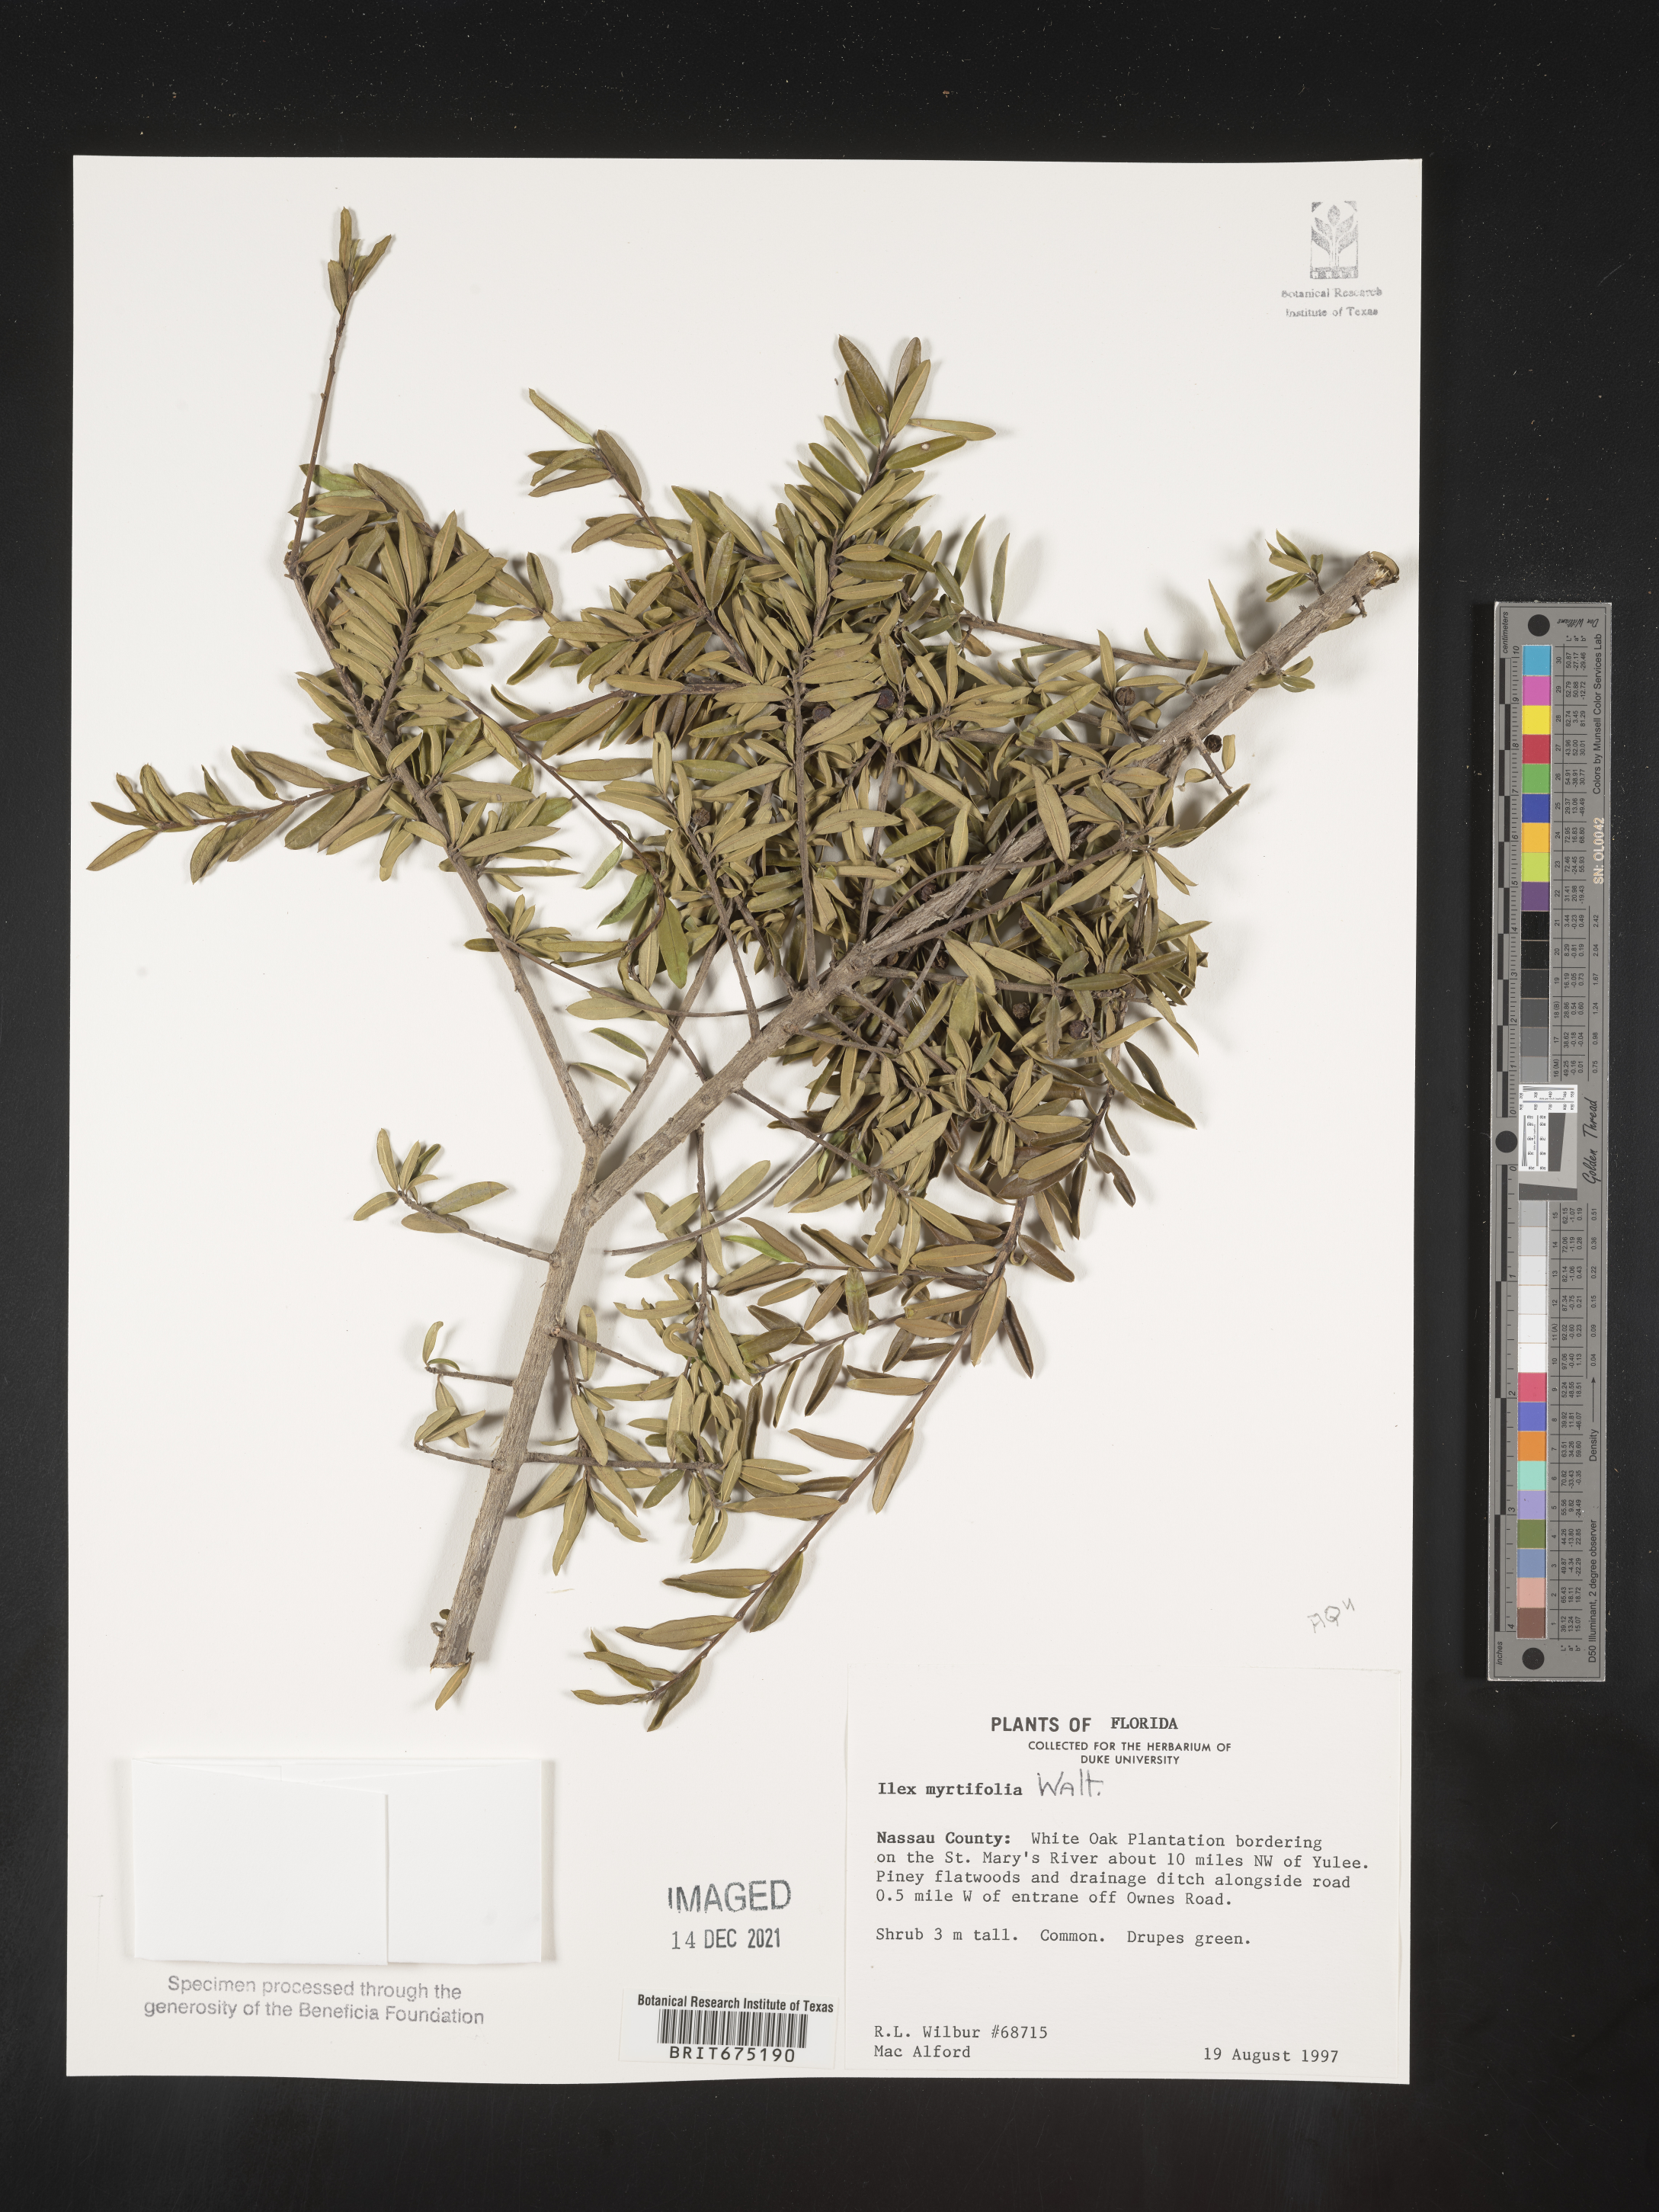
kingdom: Plantae
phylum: Tracheophyta
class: Magnoliopsida
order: Aquifoliales
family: Aquifoliaceae
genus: Ilex
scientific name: Ilex myrtifolia
